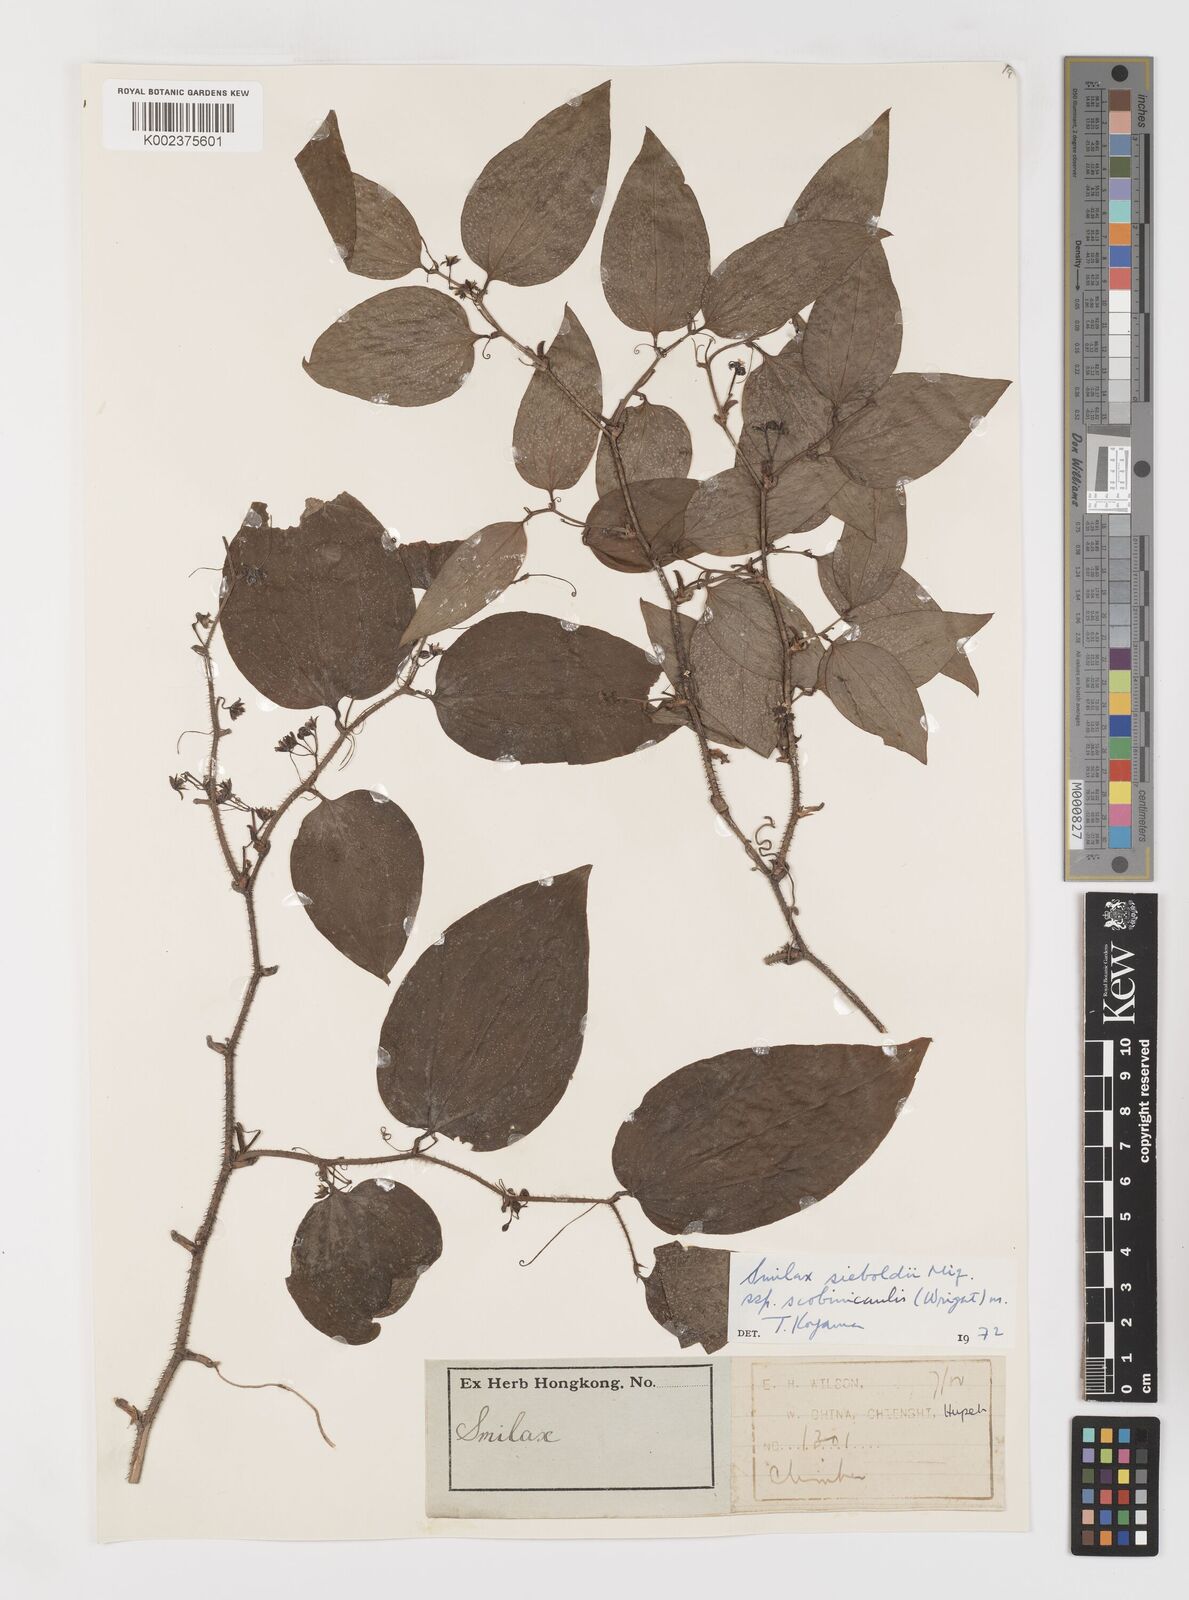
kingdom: Plantae
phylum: Tracheophyta
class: Liliopsida
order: Liliales
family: Smilacaceae
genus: Smilax
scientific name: Smilax sieboldii
